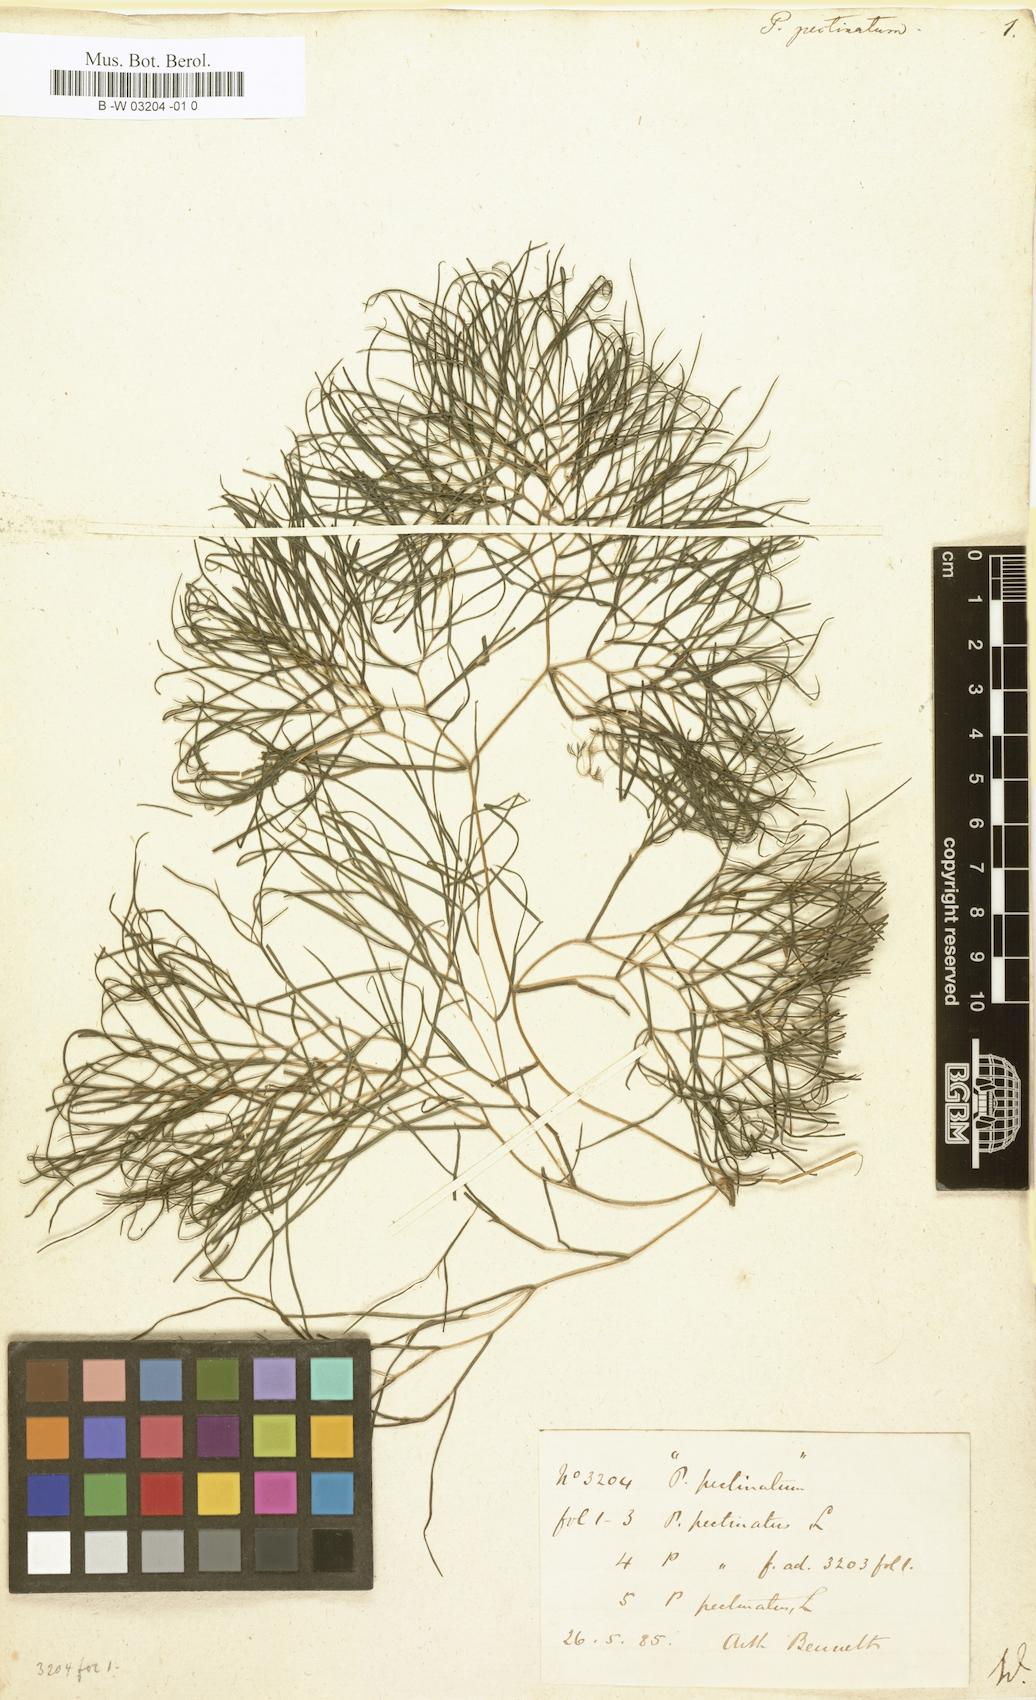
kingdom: Plantae
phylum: Tracheophyta
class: Liliopsida
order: Alismatales
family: Potamogetonaceae
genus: Stuckenia
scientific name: Stuckenia pectinata
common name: Sago pondweed
